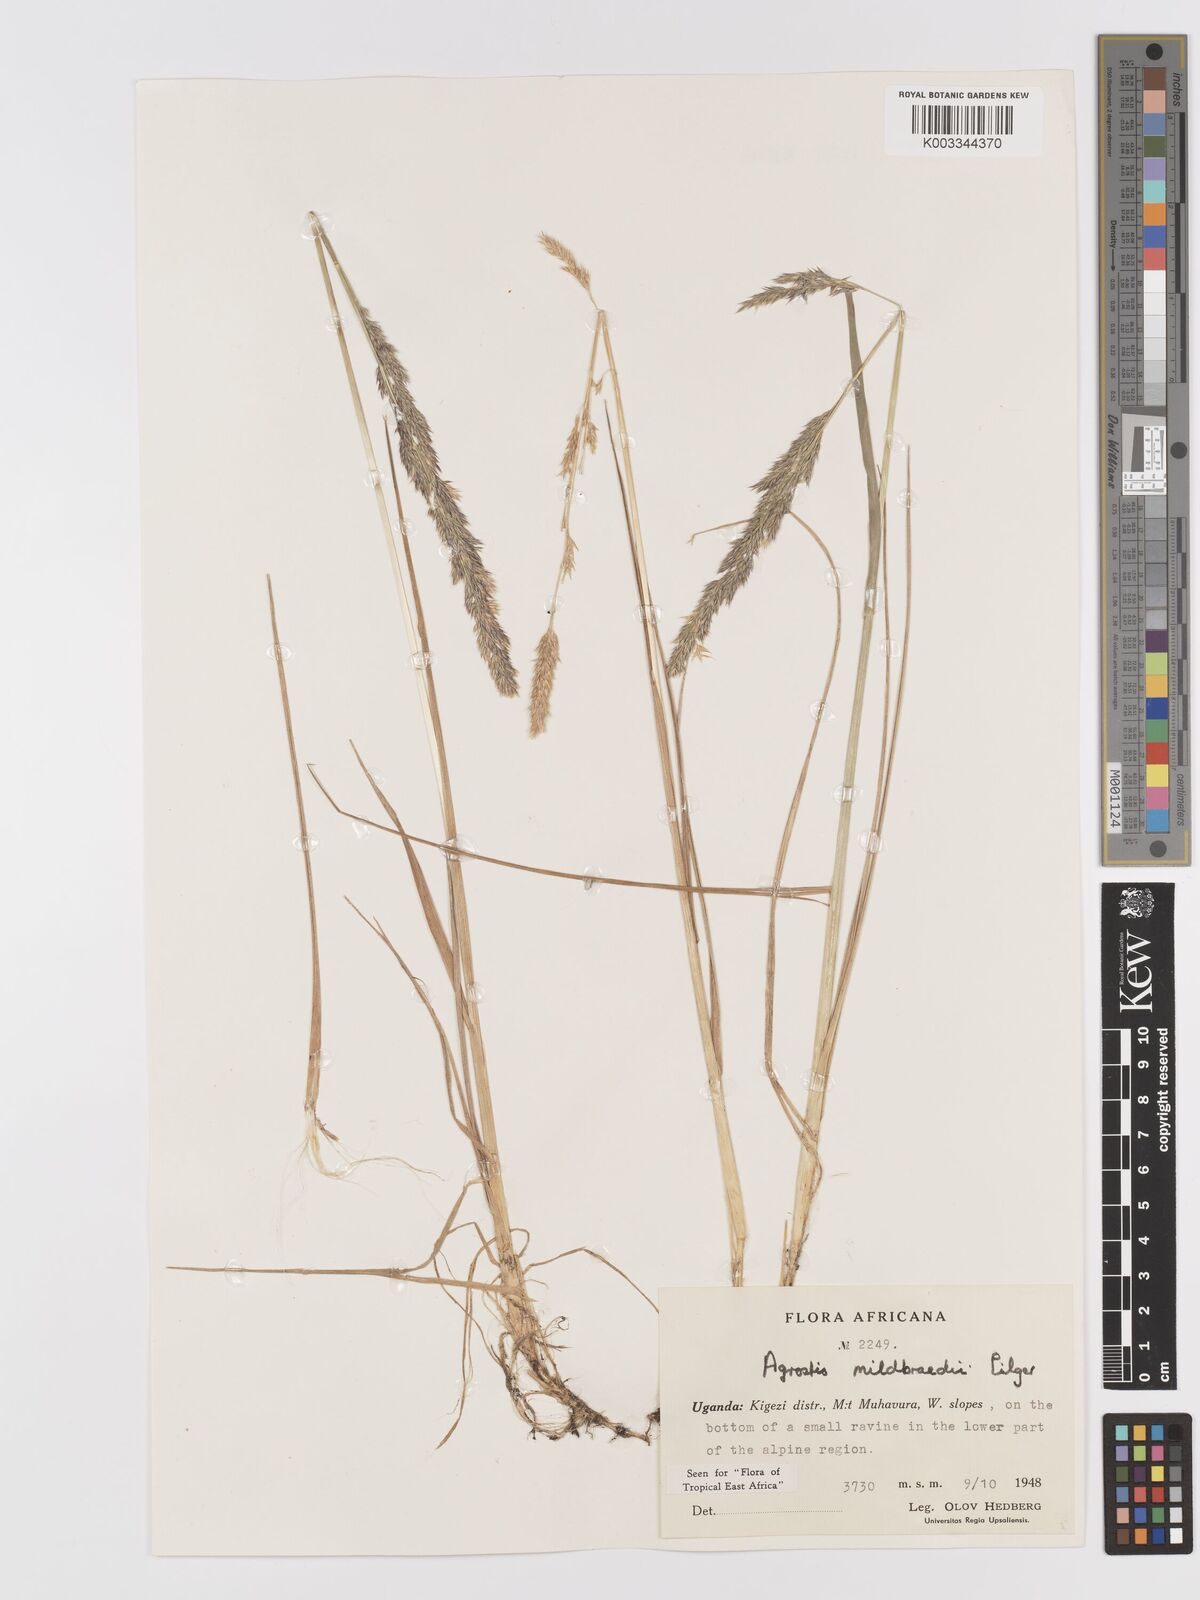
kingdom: Plantae
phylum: Tracheophyta
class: Liliopsida
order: Poales
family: Poaceae
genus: Agrostis
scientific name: Agrostis quinqueseta
